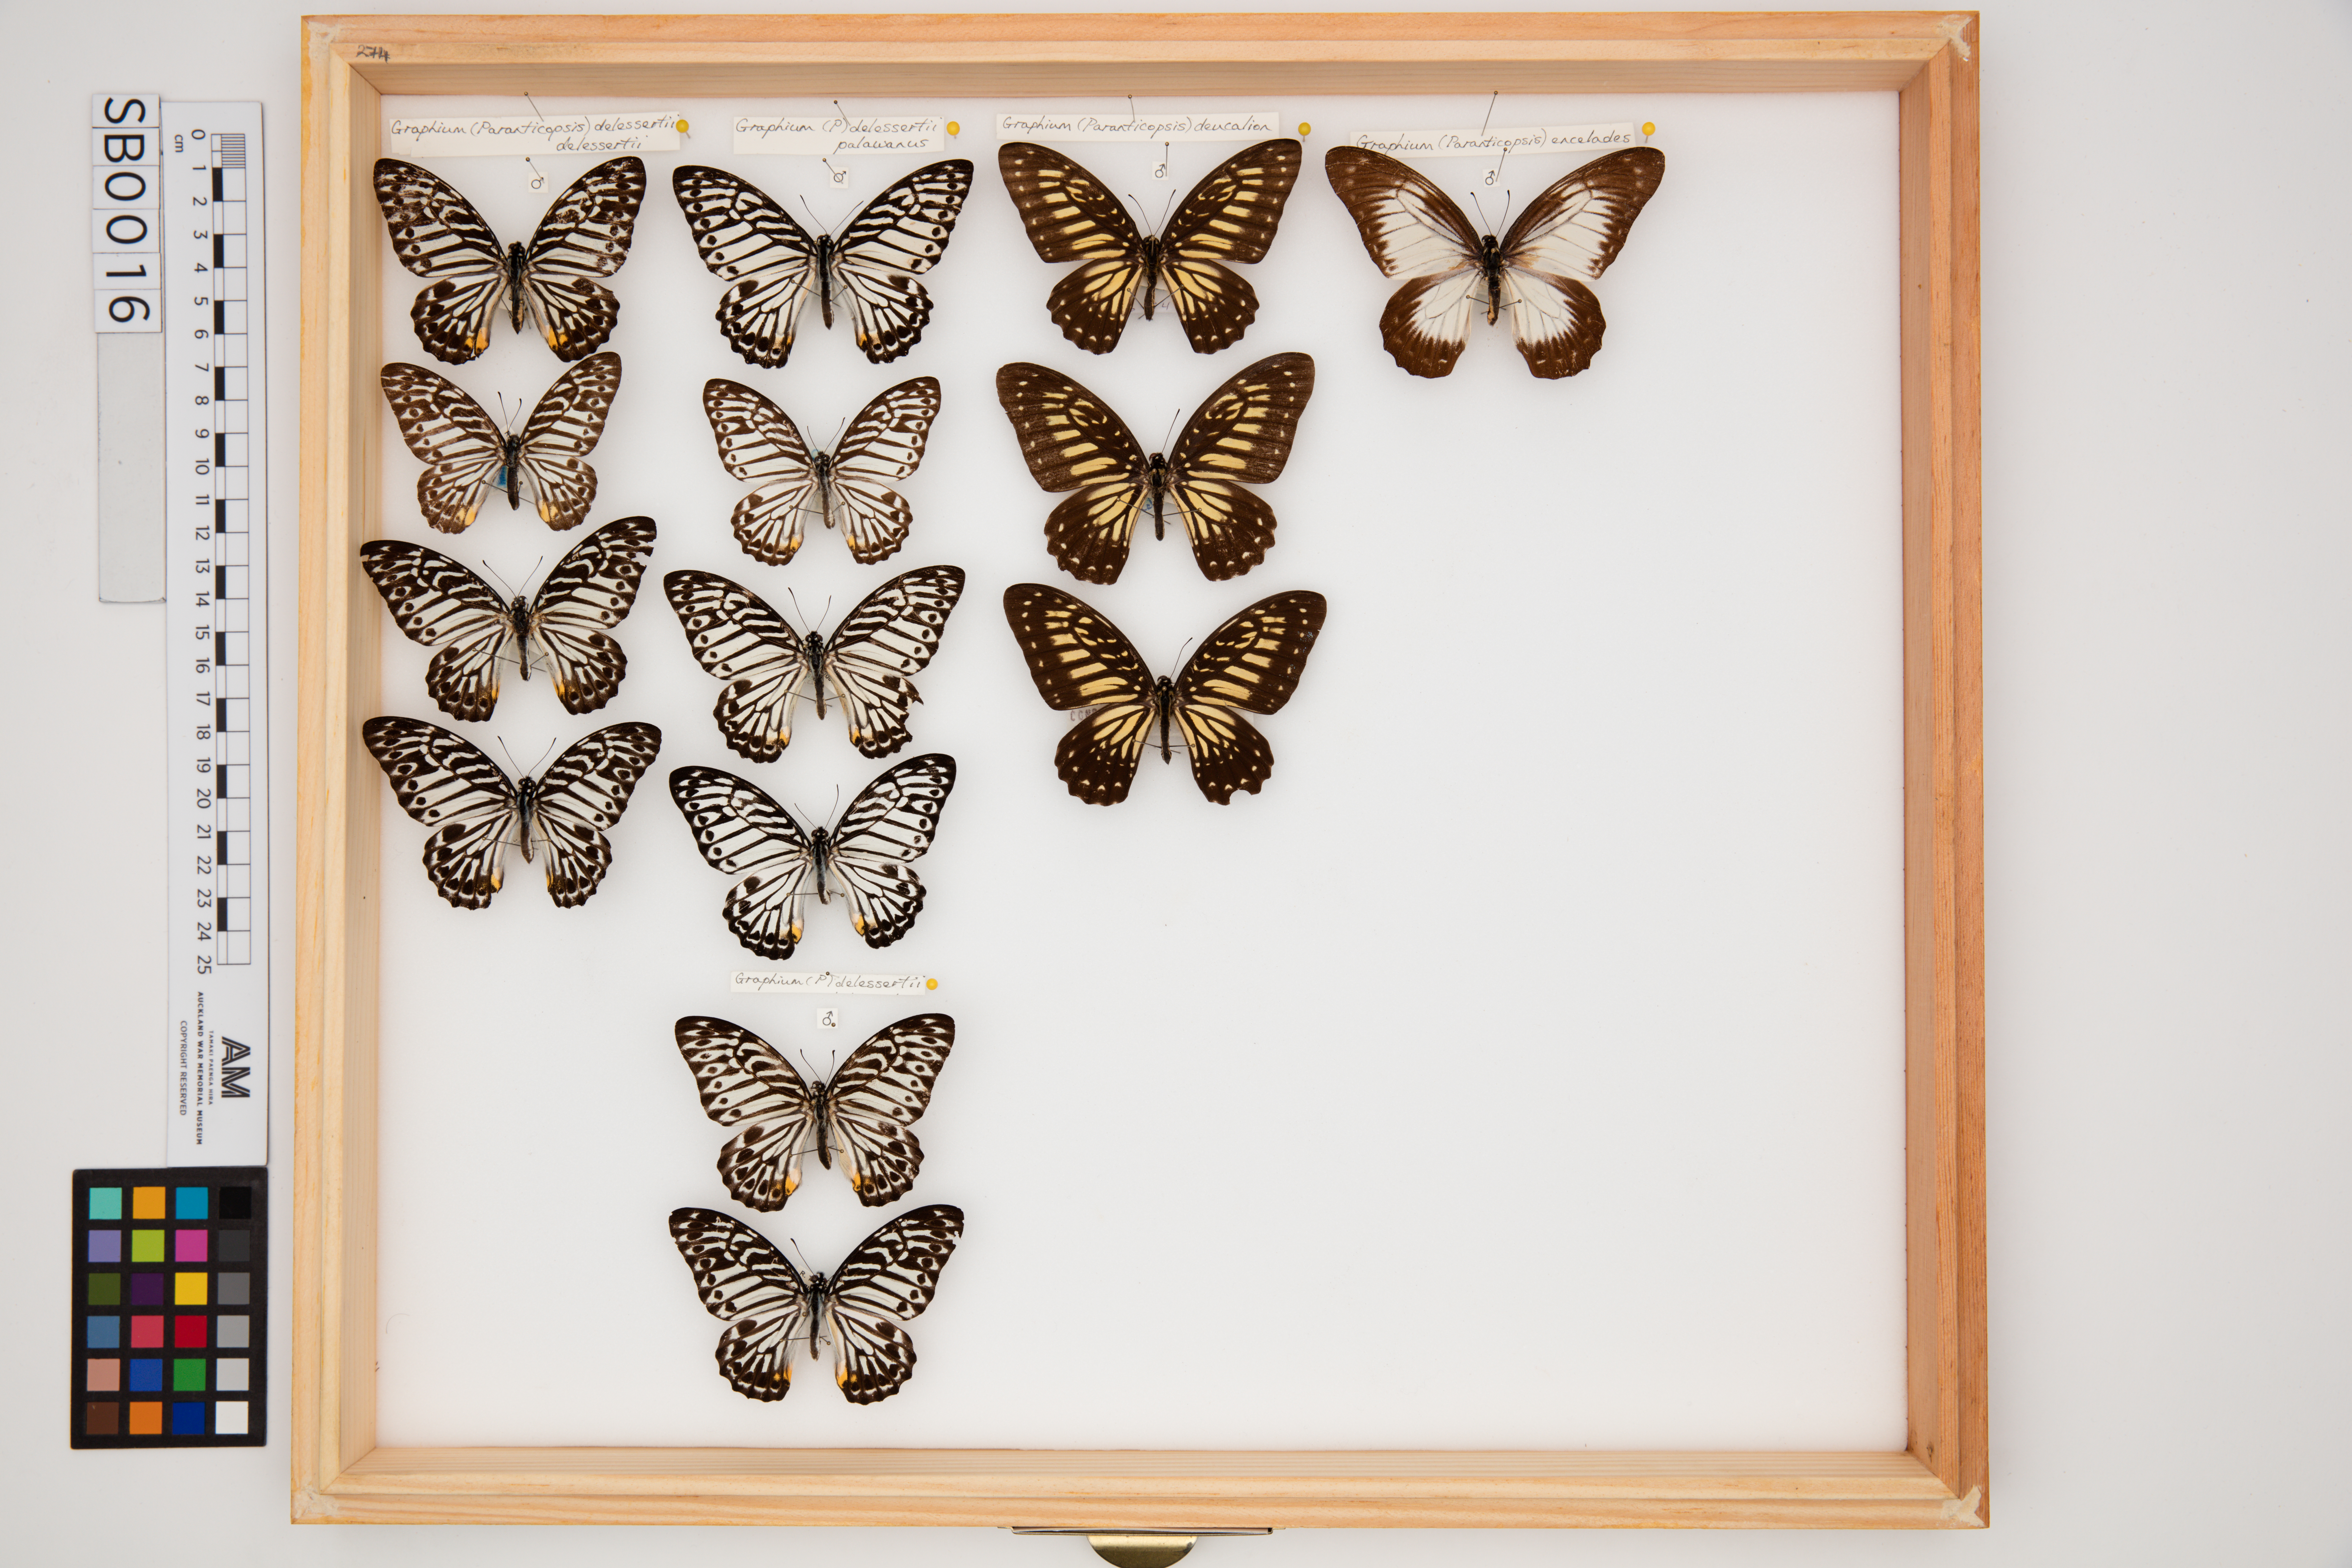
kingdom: Animalia
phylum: Arthropoda
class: Insecta
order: Lepidoptera
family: Papilionidae
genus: Graphium
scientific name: Graphium deucalion
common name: Yellow zebra
